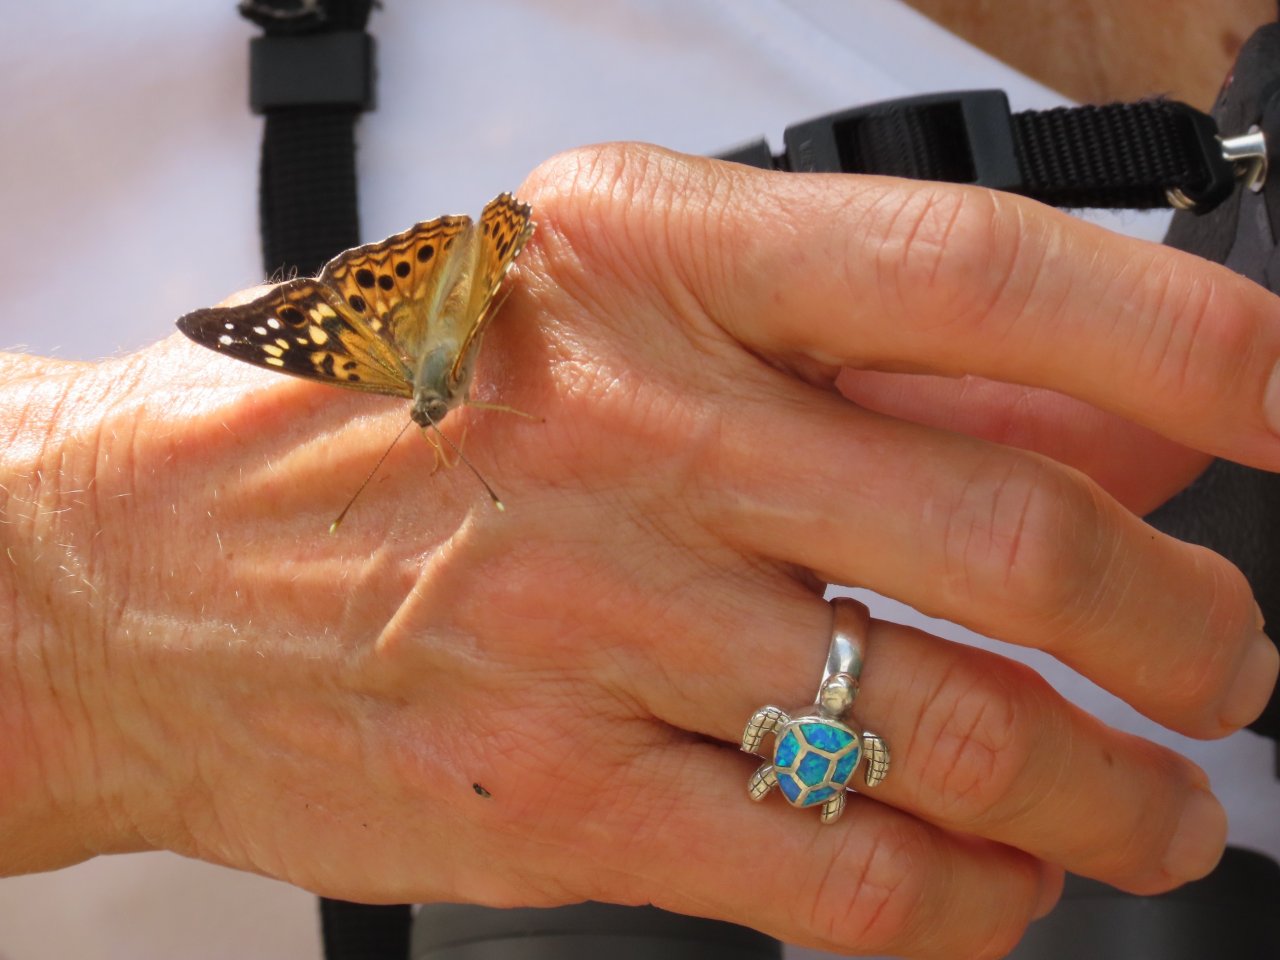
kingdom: Animalia
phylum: Arthropoda
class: Insecta
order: Lepidoptera
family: Nymphalidae
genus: Asterocampa
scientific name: Asterocampa celtis
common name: Hackberry Emperor
